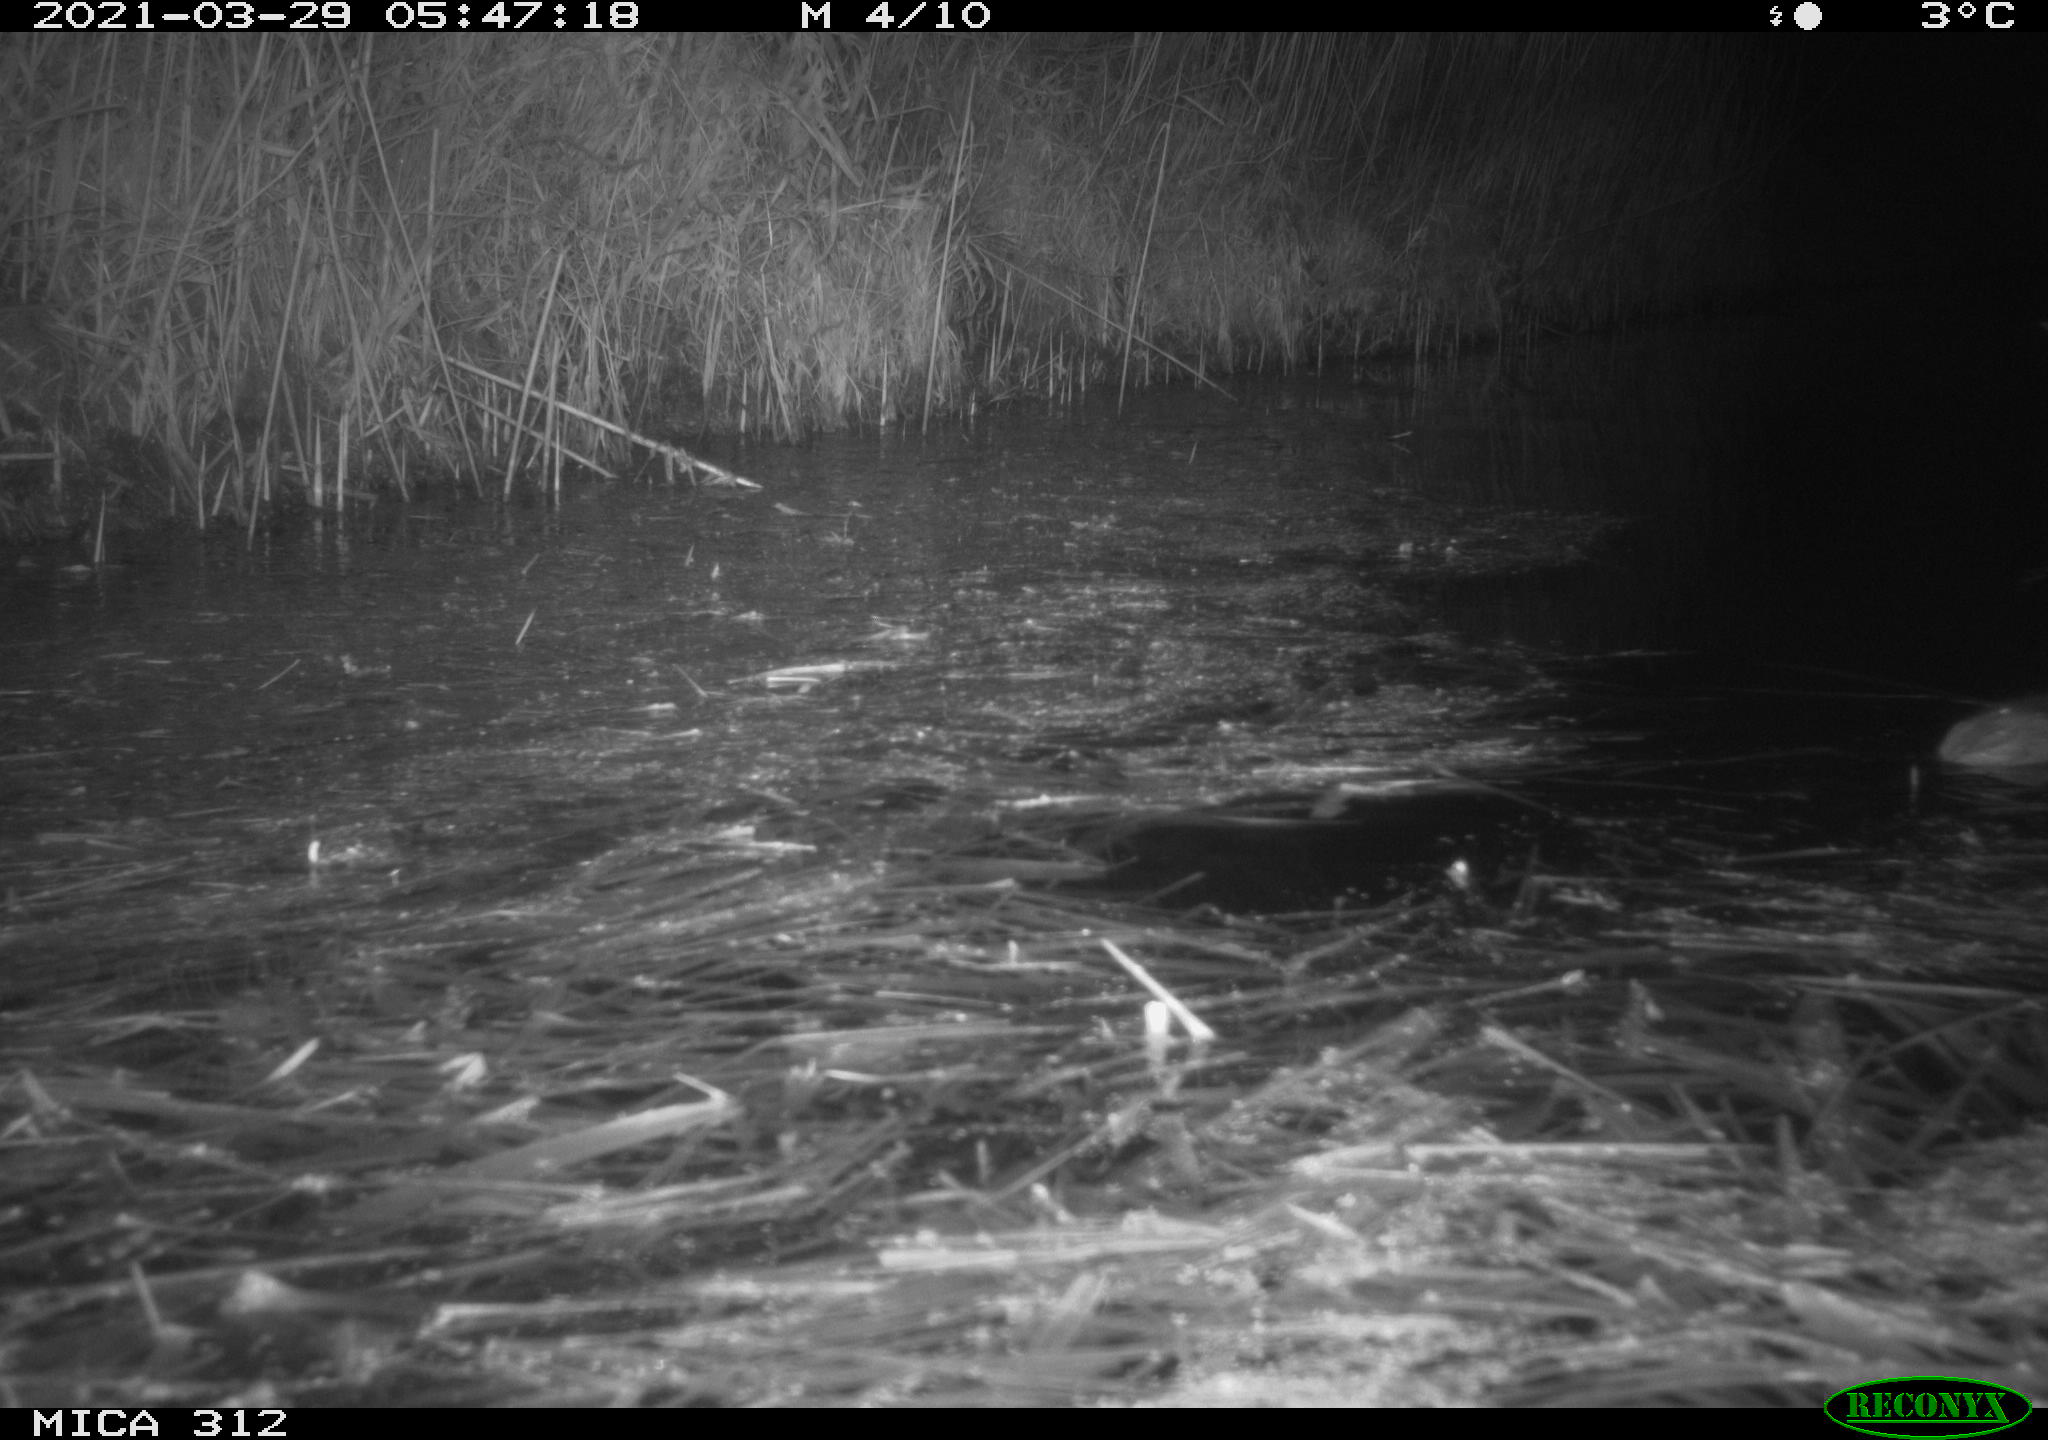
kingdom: Animalia
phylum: Chordata
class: Mammalia
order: Rodentia
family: Muridae
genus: Rattus
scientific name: Rattus norvegicus
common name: Brown rat
